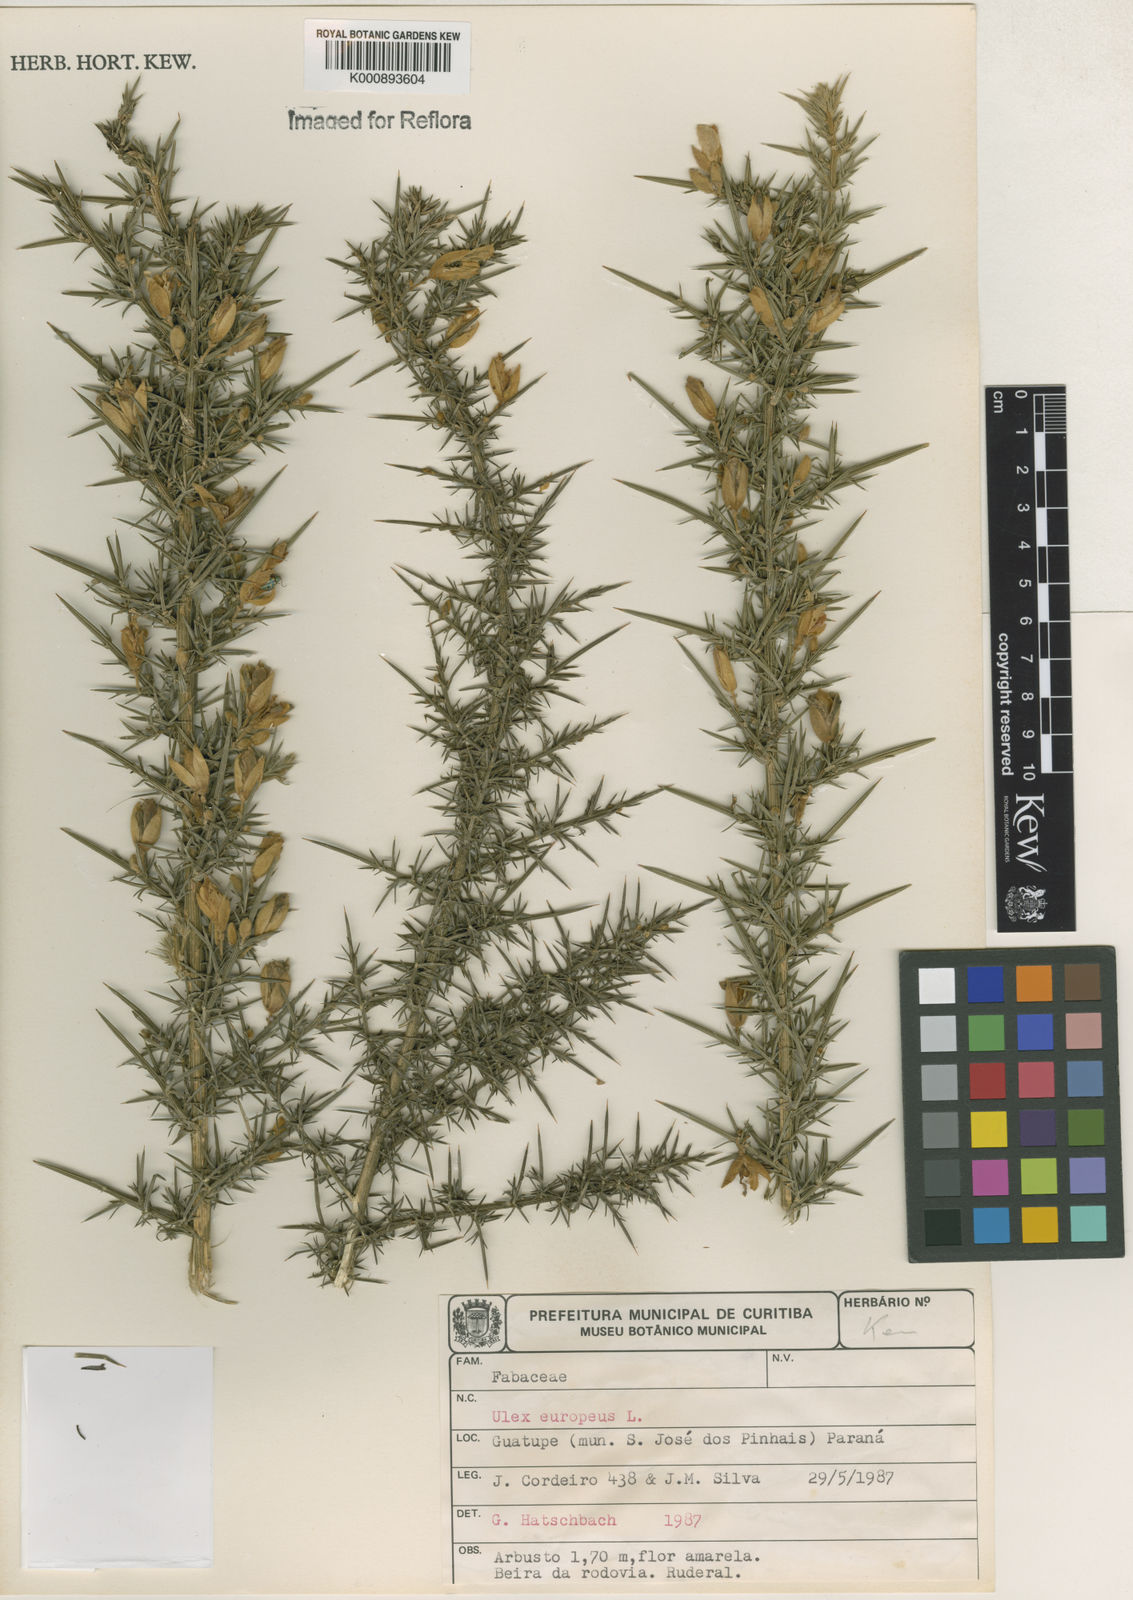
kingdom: Plantae
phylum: Tracheophyta
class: Magnoliopsida
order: Fabales
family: Fabaceae
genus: Ulex
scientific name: Ulex europaeus
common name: Common gorse
